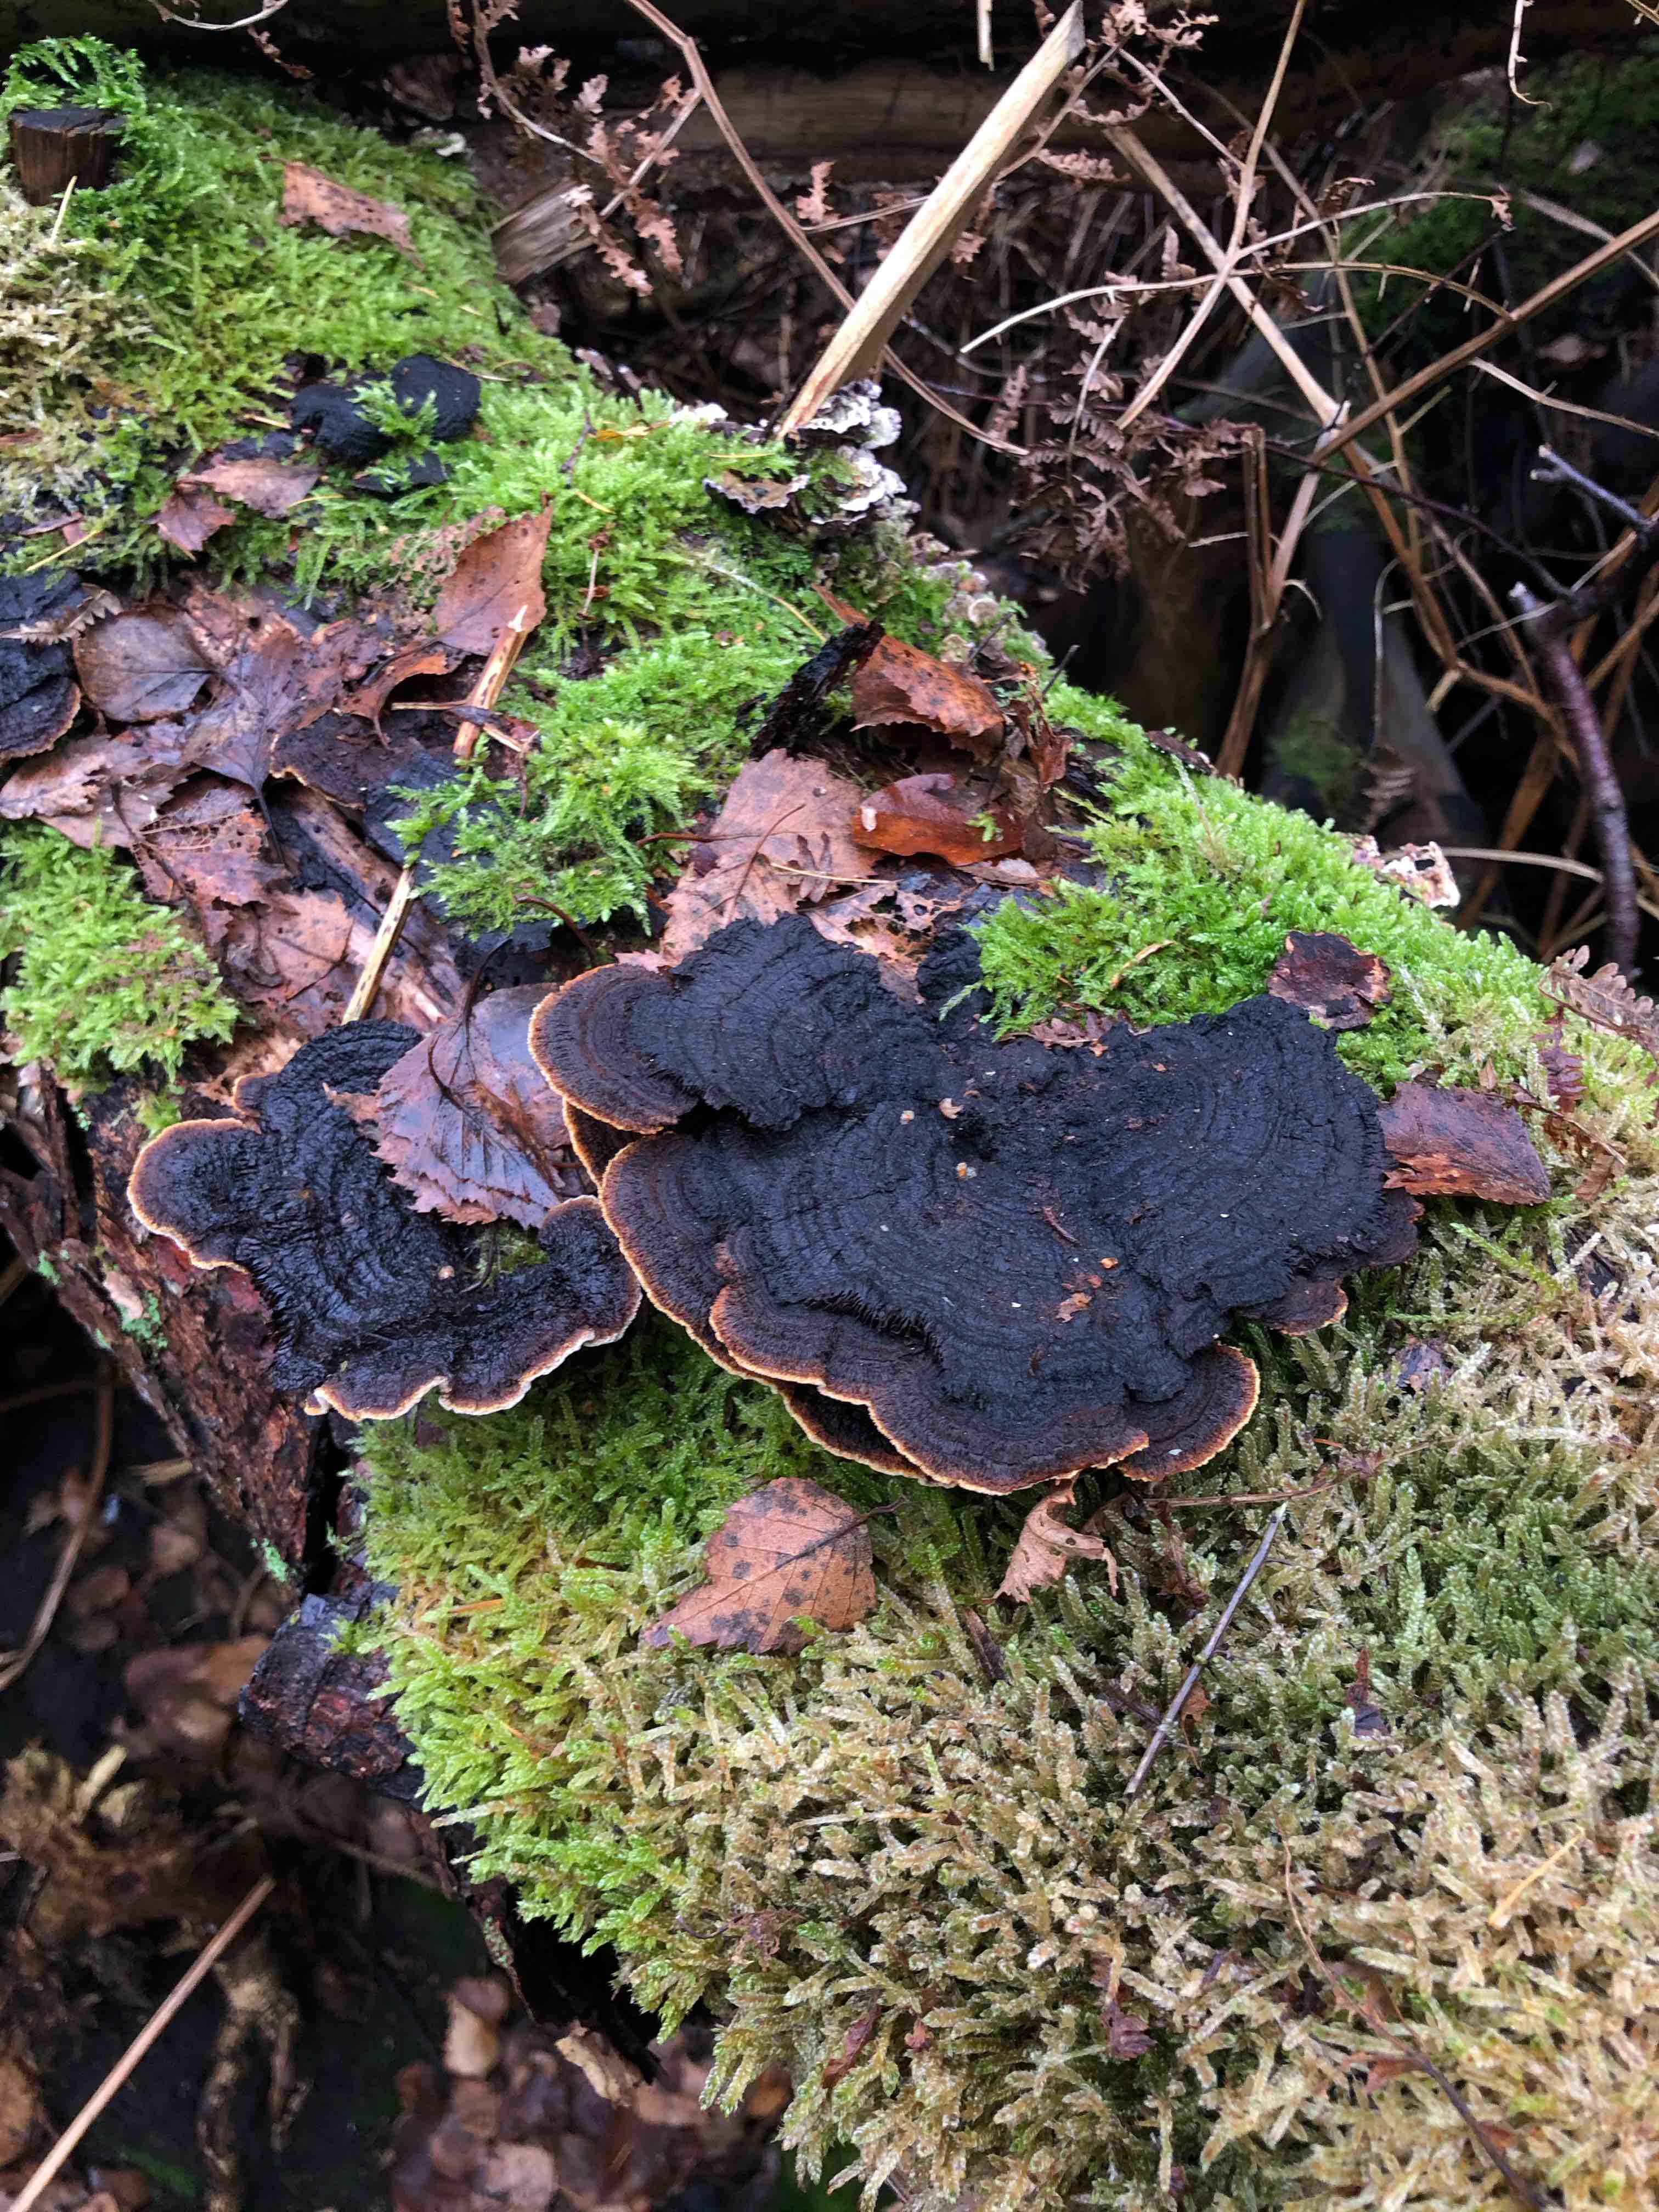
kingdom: Fungi
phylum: Basidiomycota
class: Agaricomycetes
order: Gloeophyllales
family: Gloeophyllaceae
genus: Gloeophyllum
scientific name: Gloeophyllum sepiarium
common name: fyrre-korkhat
